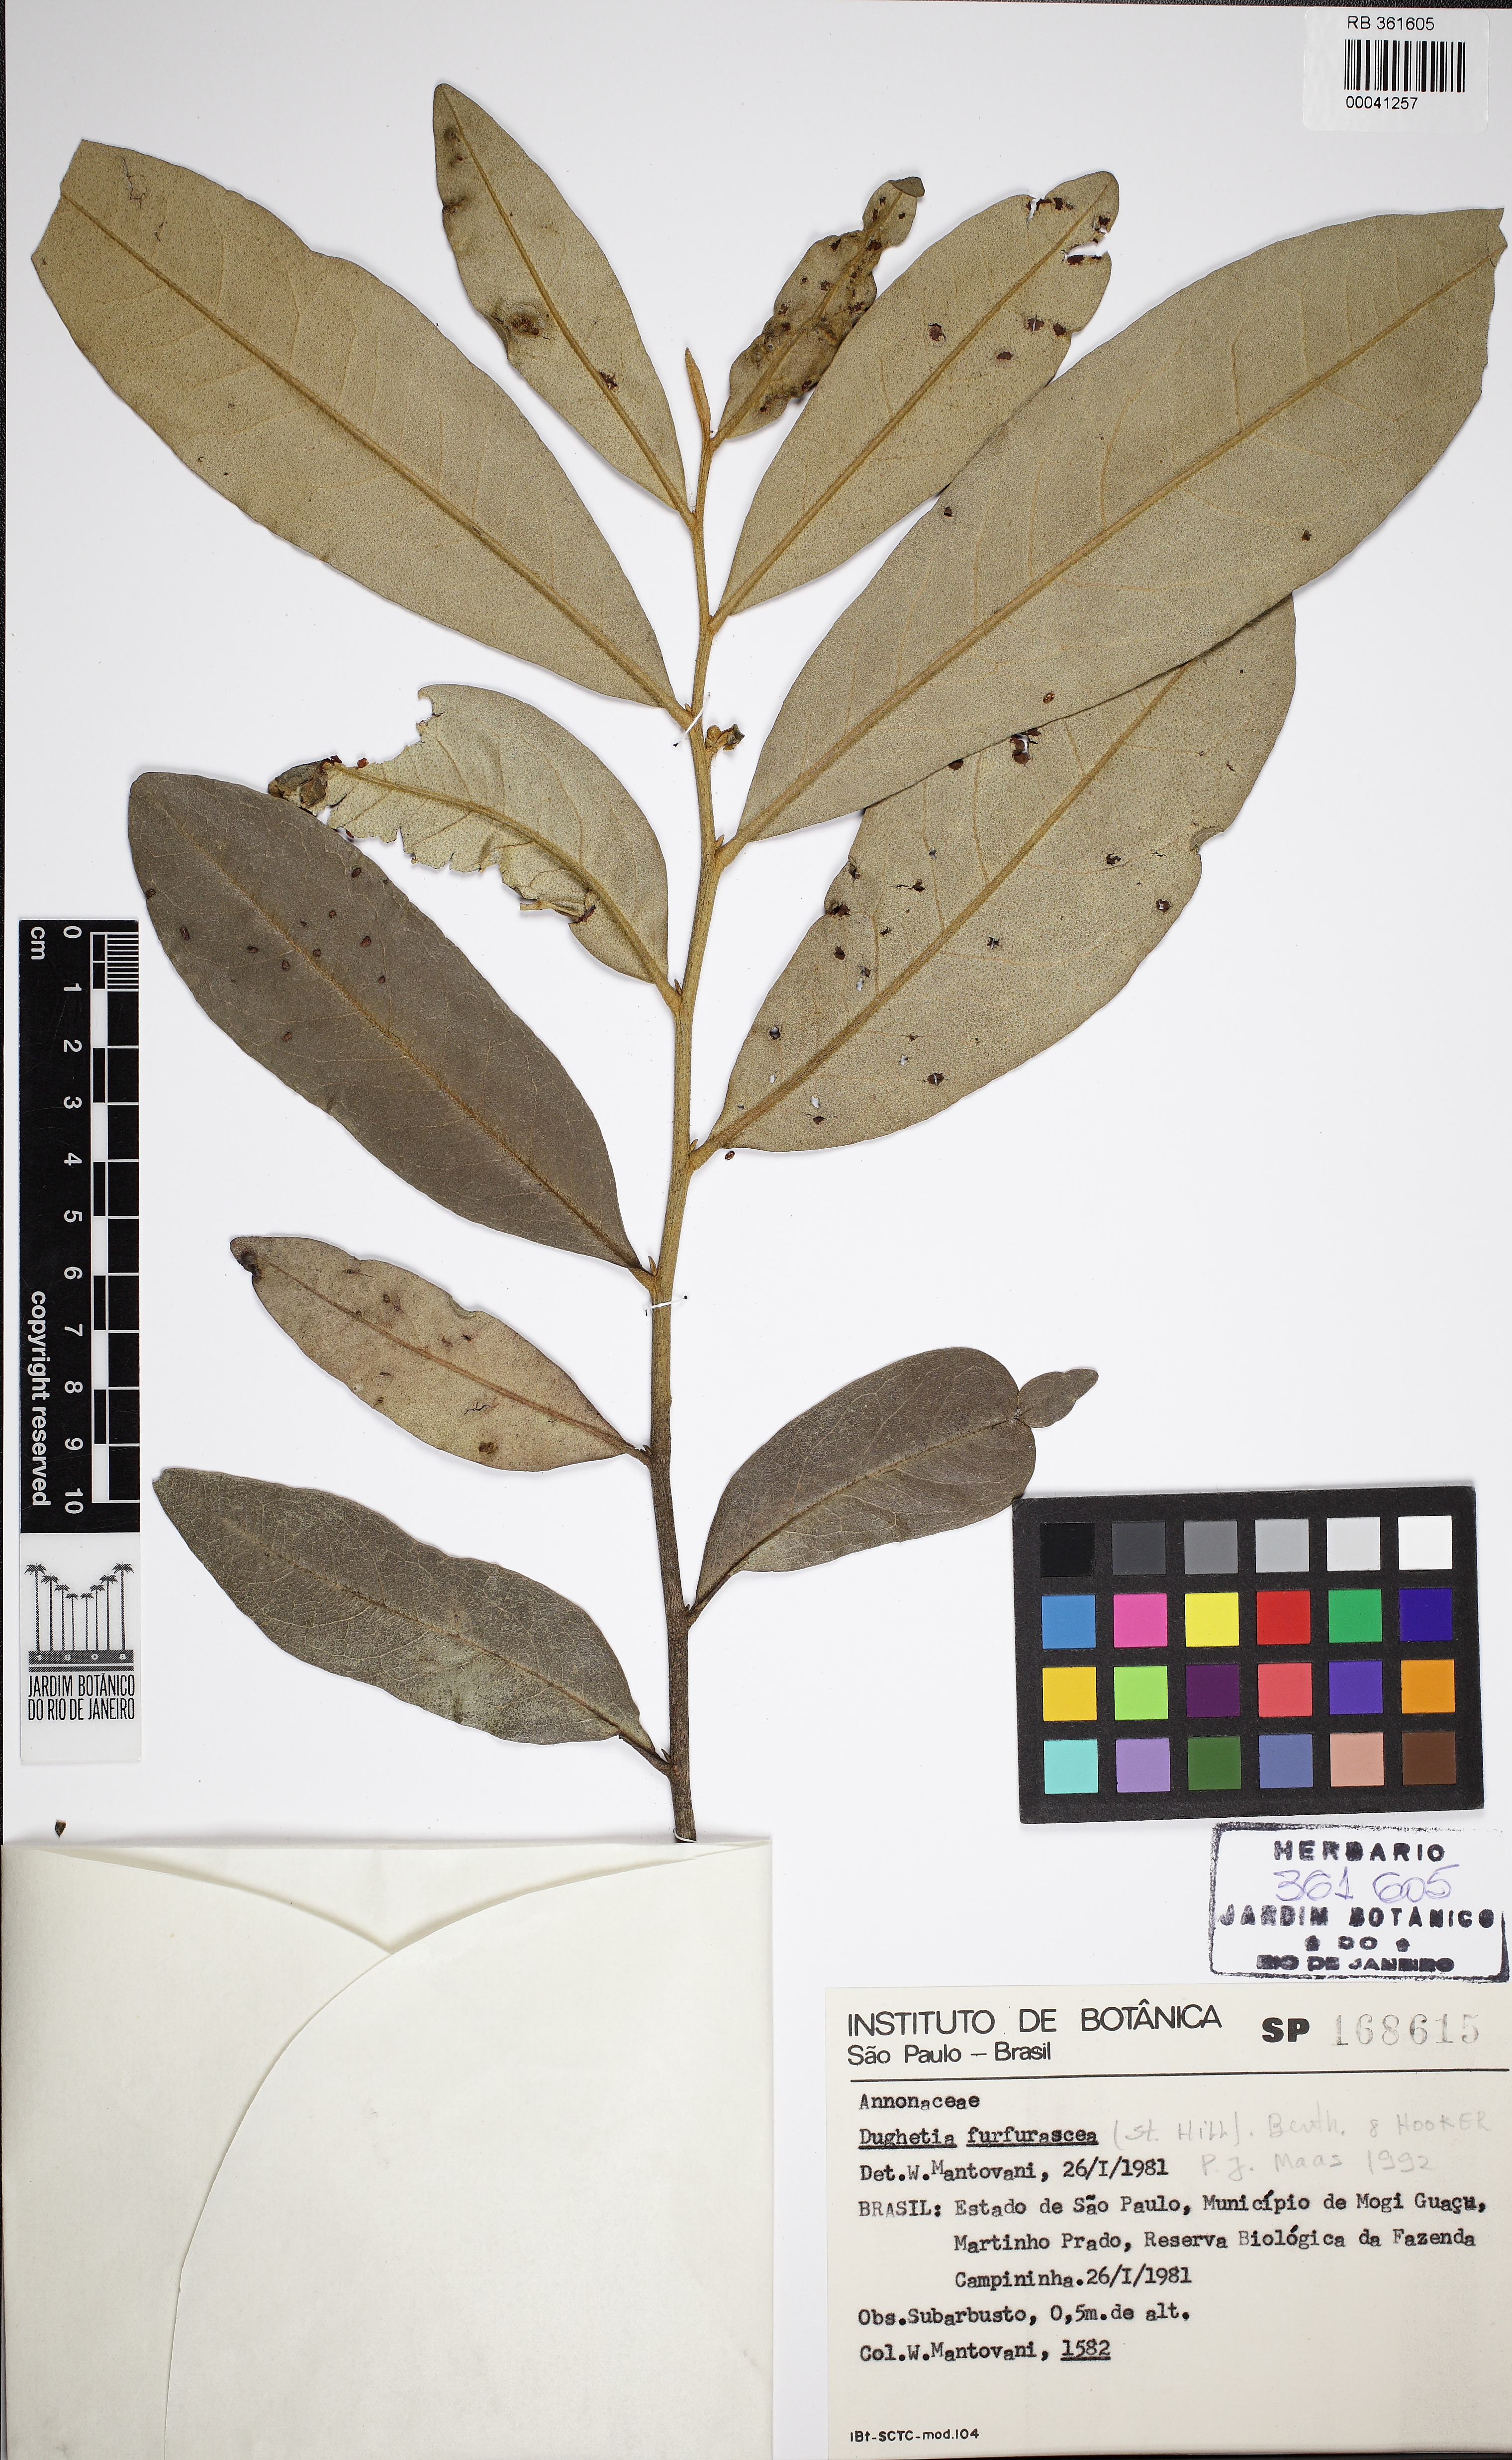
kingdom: Plantae
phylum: Tracheophyta
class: Magnoliopsida
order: Magnoliales
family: Annonaceae
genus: Duguetia
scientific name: Duguetia furfuracea
